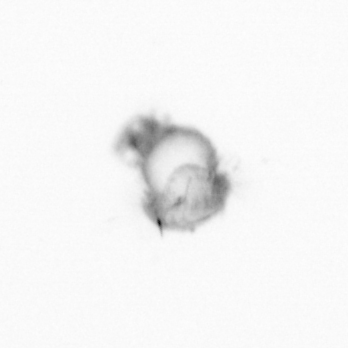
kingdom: Animalia
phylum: Annelida
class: Polychaeta
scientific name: Polychaeta
